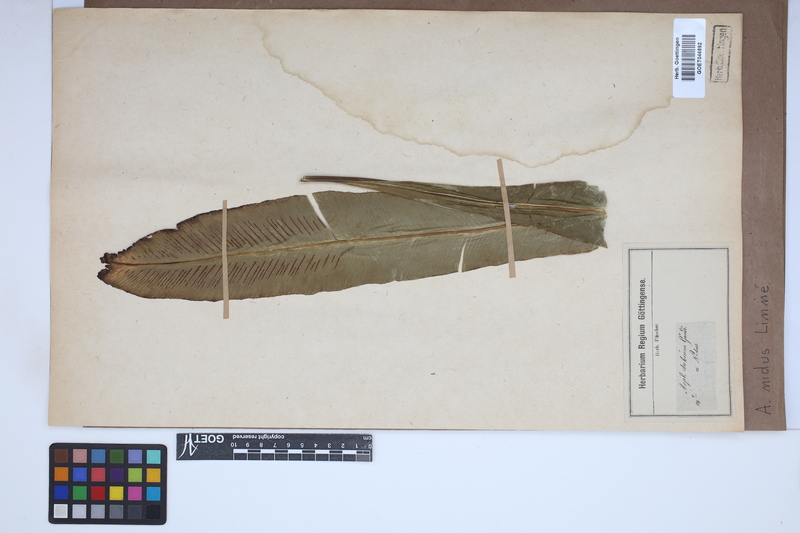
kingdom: Plantae
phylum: Tracheophyta
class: Polypodiopsida
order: Polypodiales
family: Aspleniaceae
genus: Asplenium
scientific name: Asplenium nidus
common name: Bird's-nest fern
